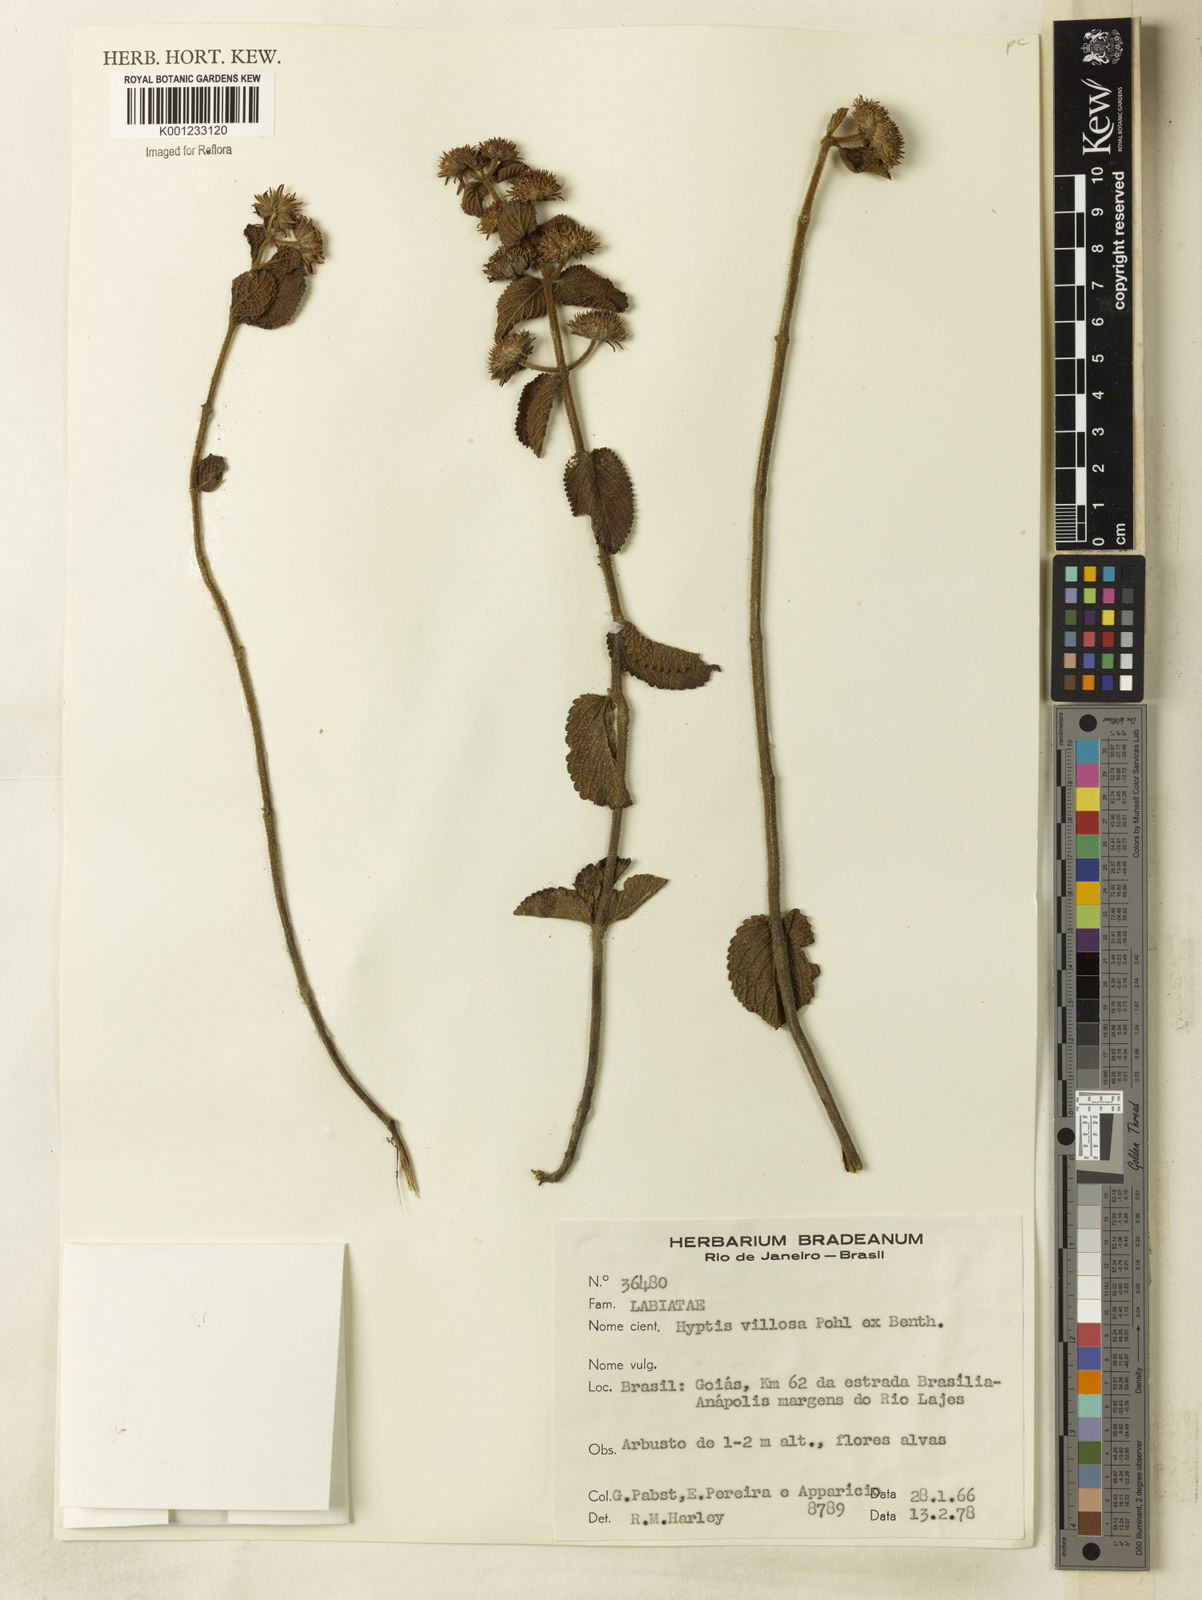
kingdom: Plantae
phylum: Tracheophyta
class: Magnoliopsida
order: Lamiales
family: Lamiaceae
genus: Hyptis
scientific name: Hyptis villosa
